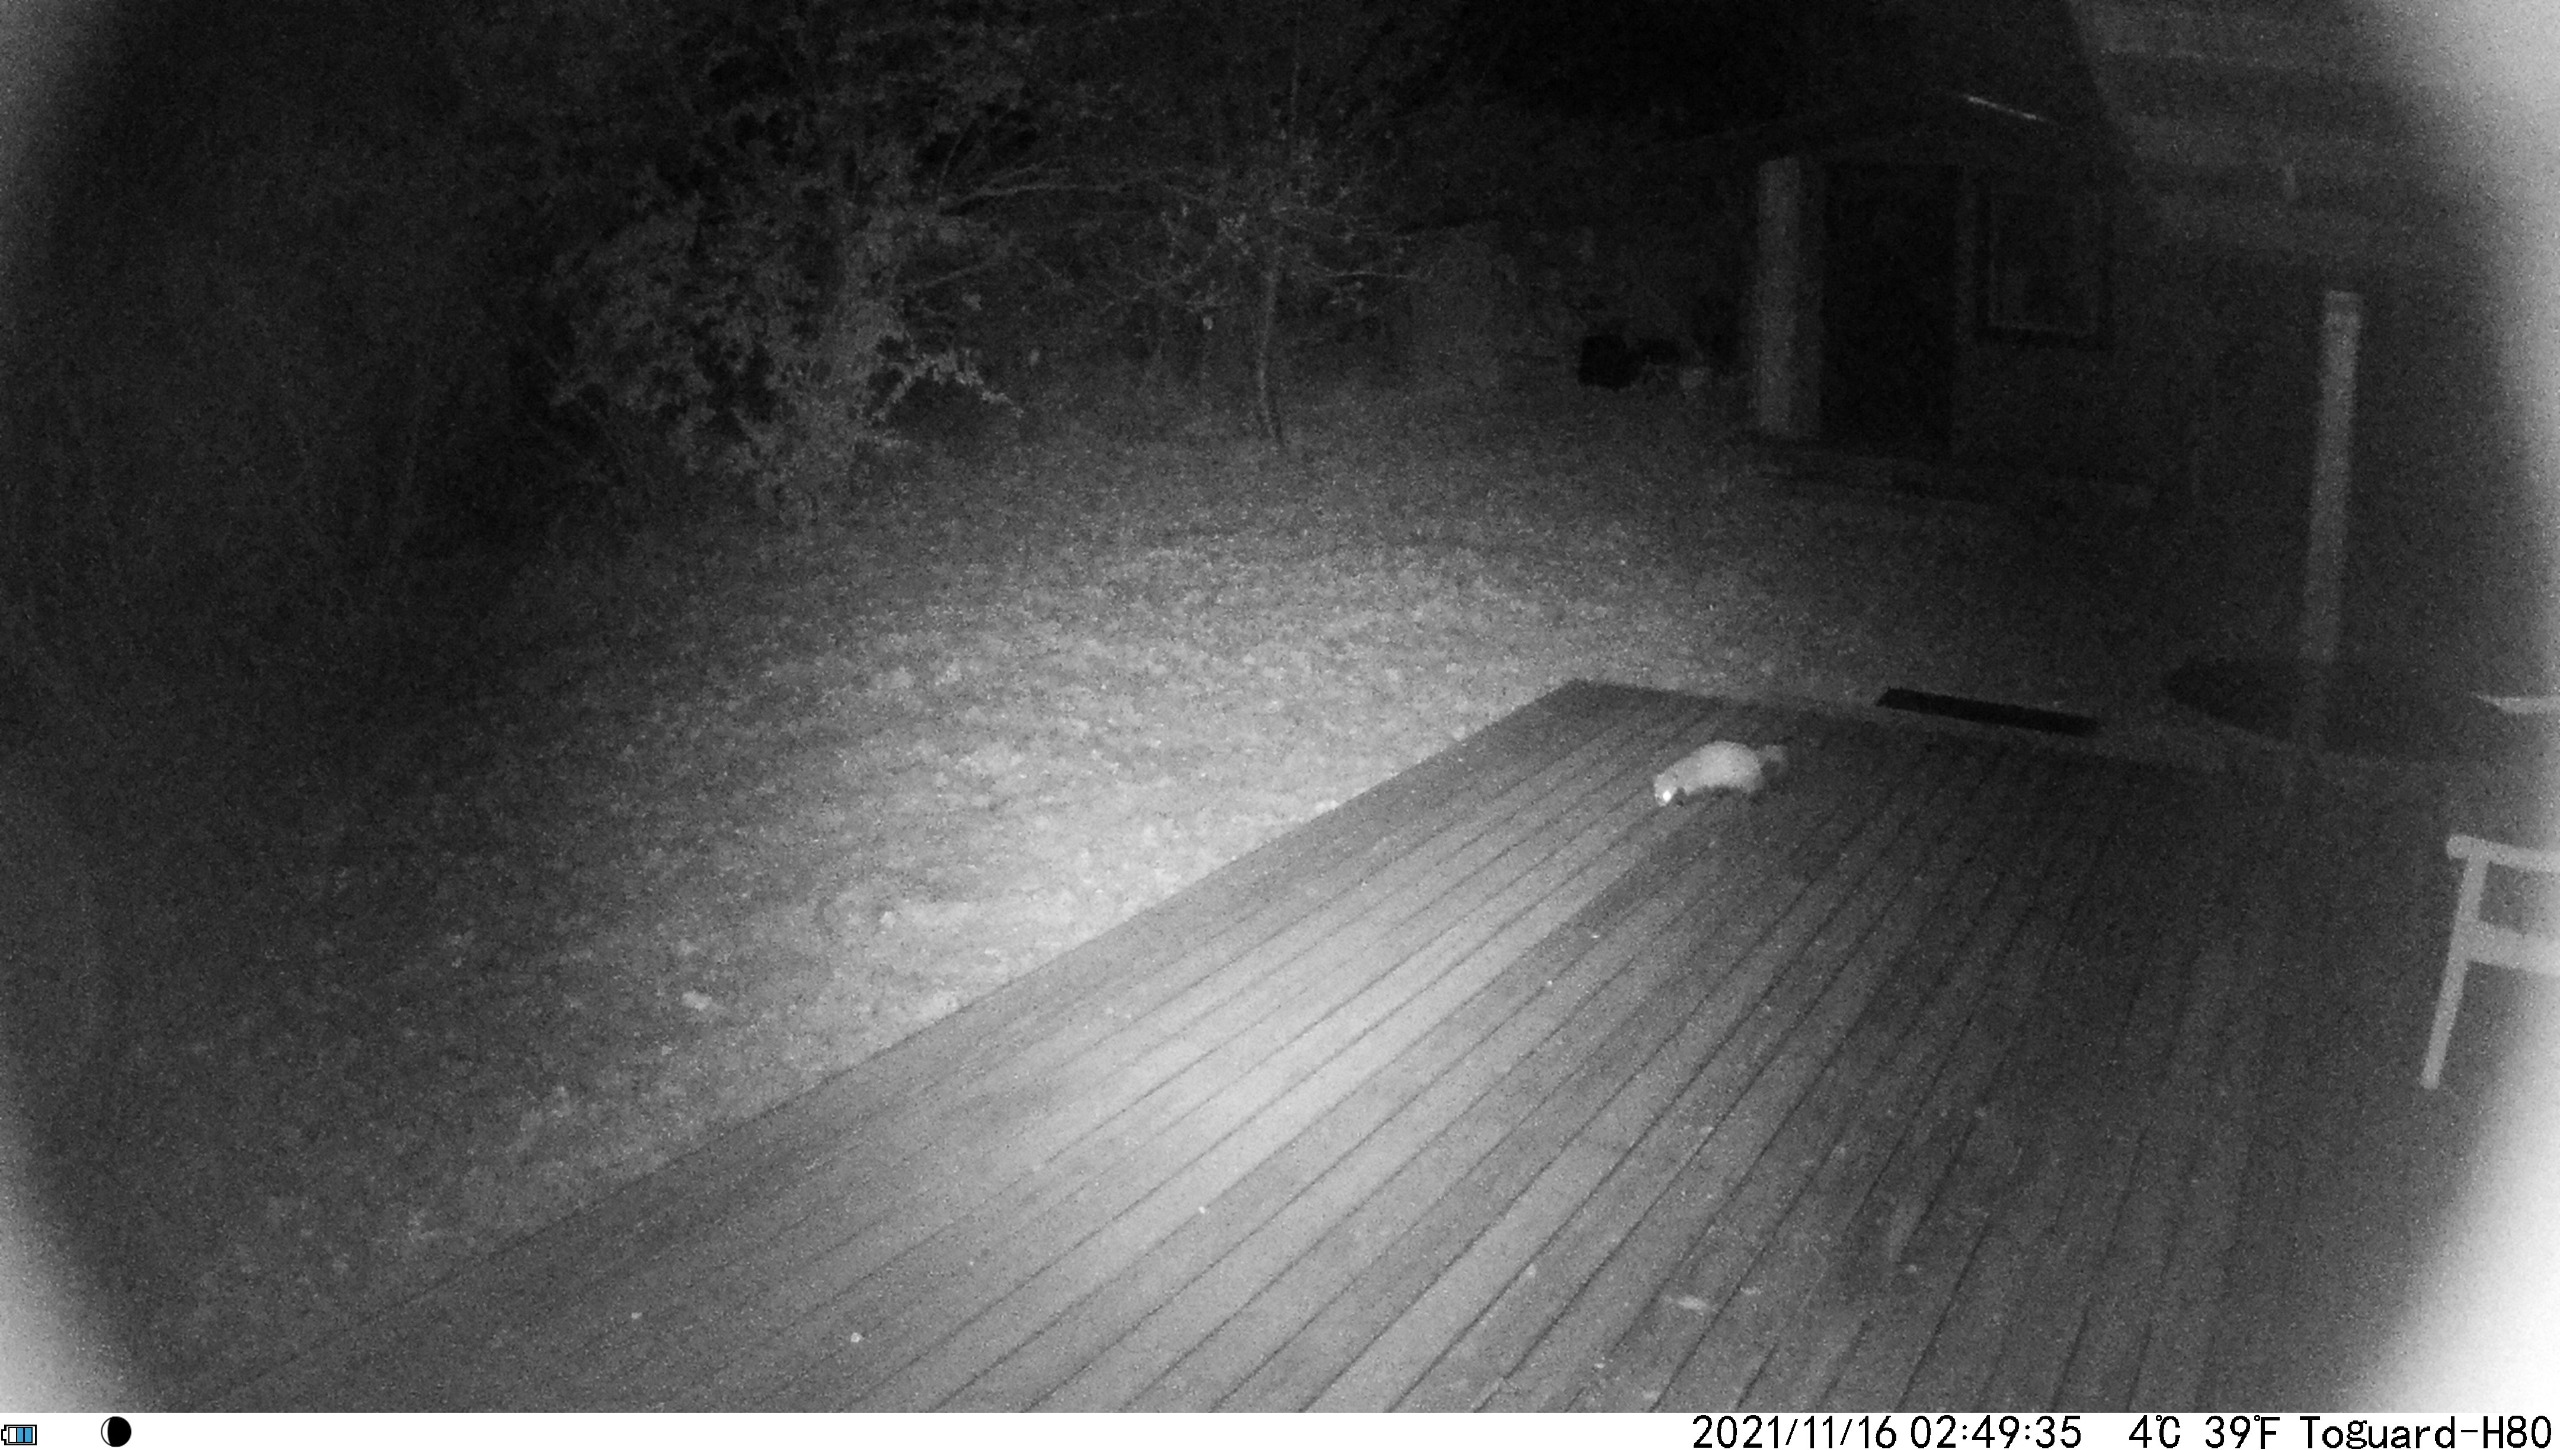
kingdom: Animalia
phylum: Chordata
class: Mammalia
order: Carnivora
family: Mustelidae
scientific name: Mustelidae
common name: Mårer
